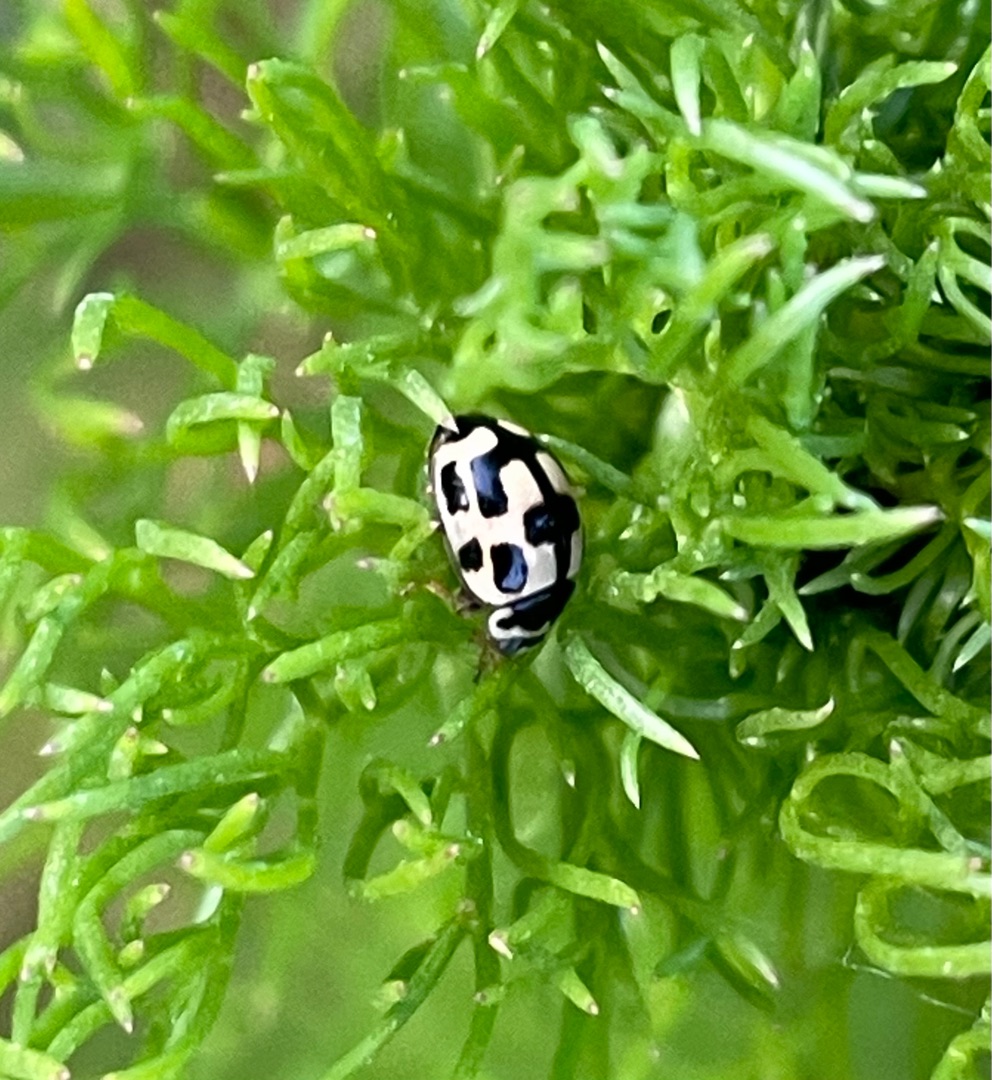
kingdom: Animalia
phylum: Arthropoda
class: Insecta
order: Coleoptera
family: Coccinellidae
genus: Propylaea
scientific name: Propylaea quatuordecimpunctata
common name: Skakbræt
